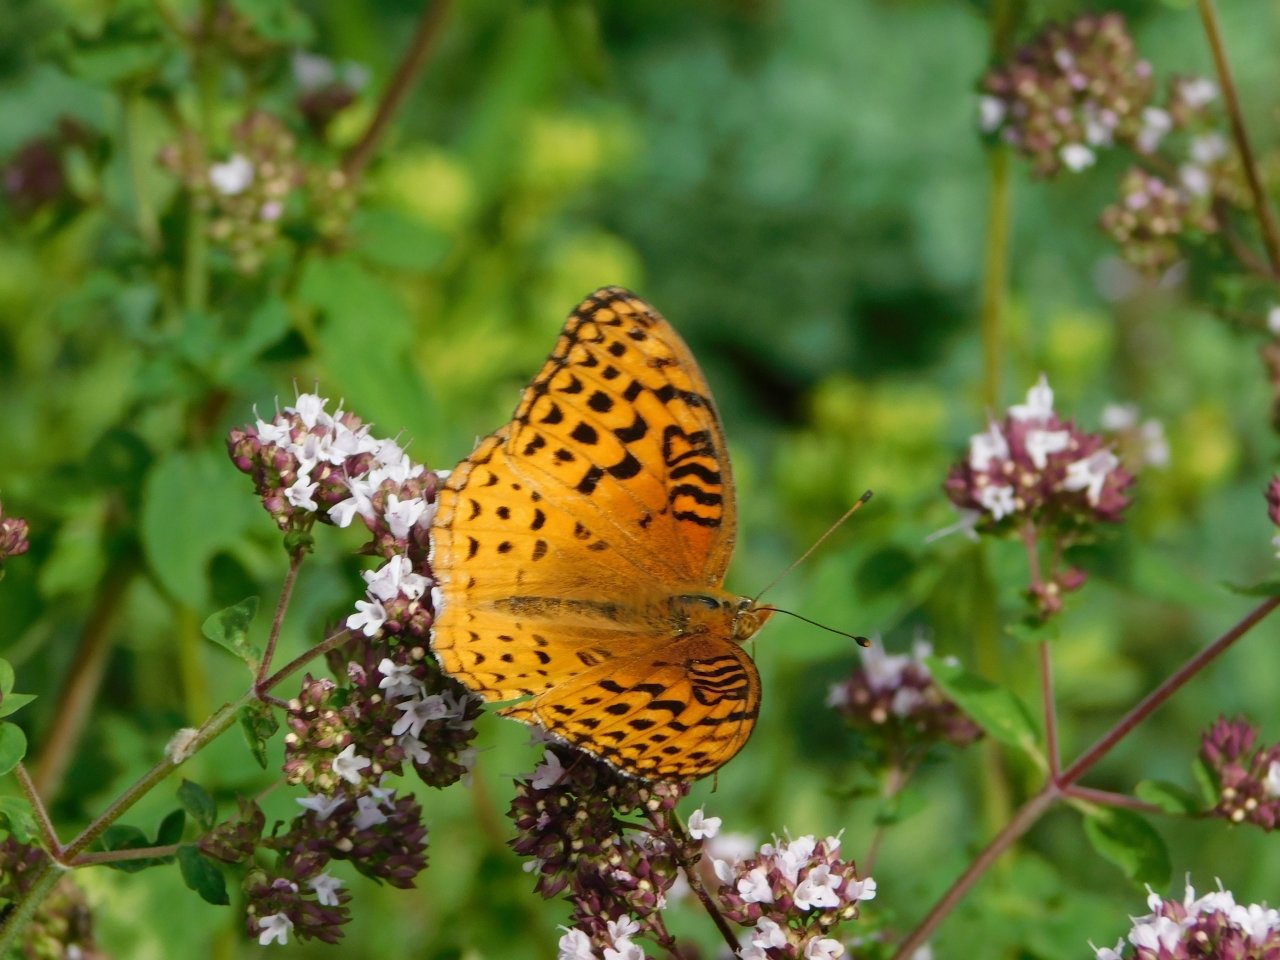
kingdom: Animalia
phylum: Arthropoda
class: Insecta
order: Lepidoptera
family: Nymphalidae
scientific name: Nymphalidae
